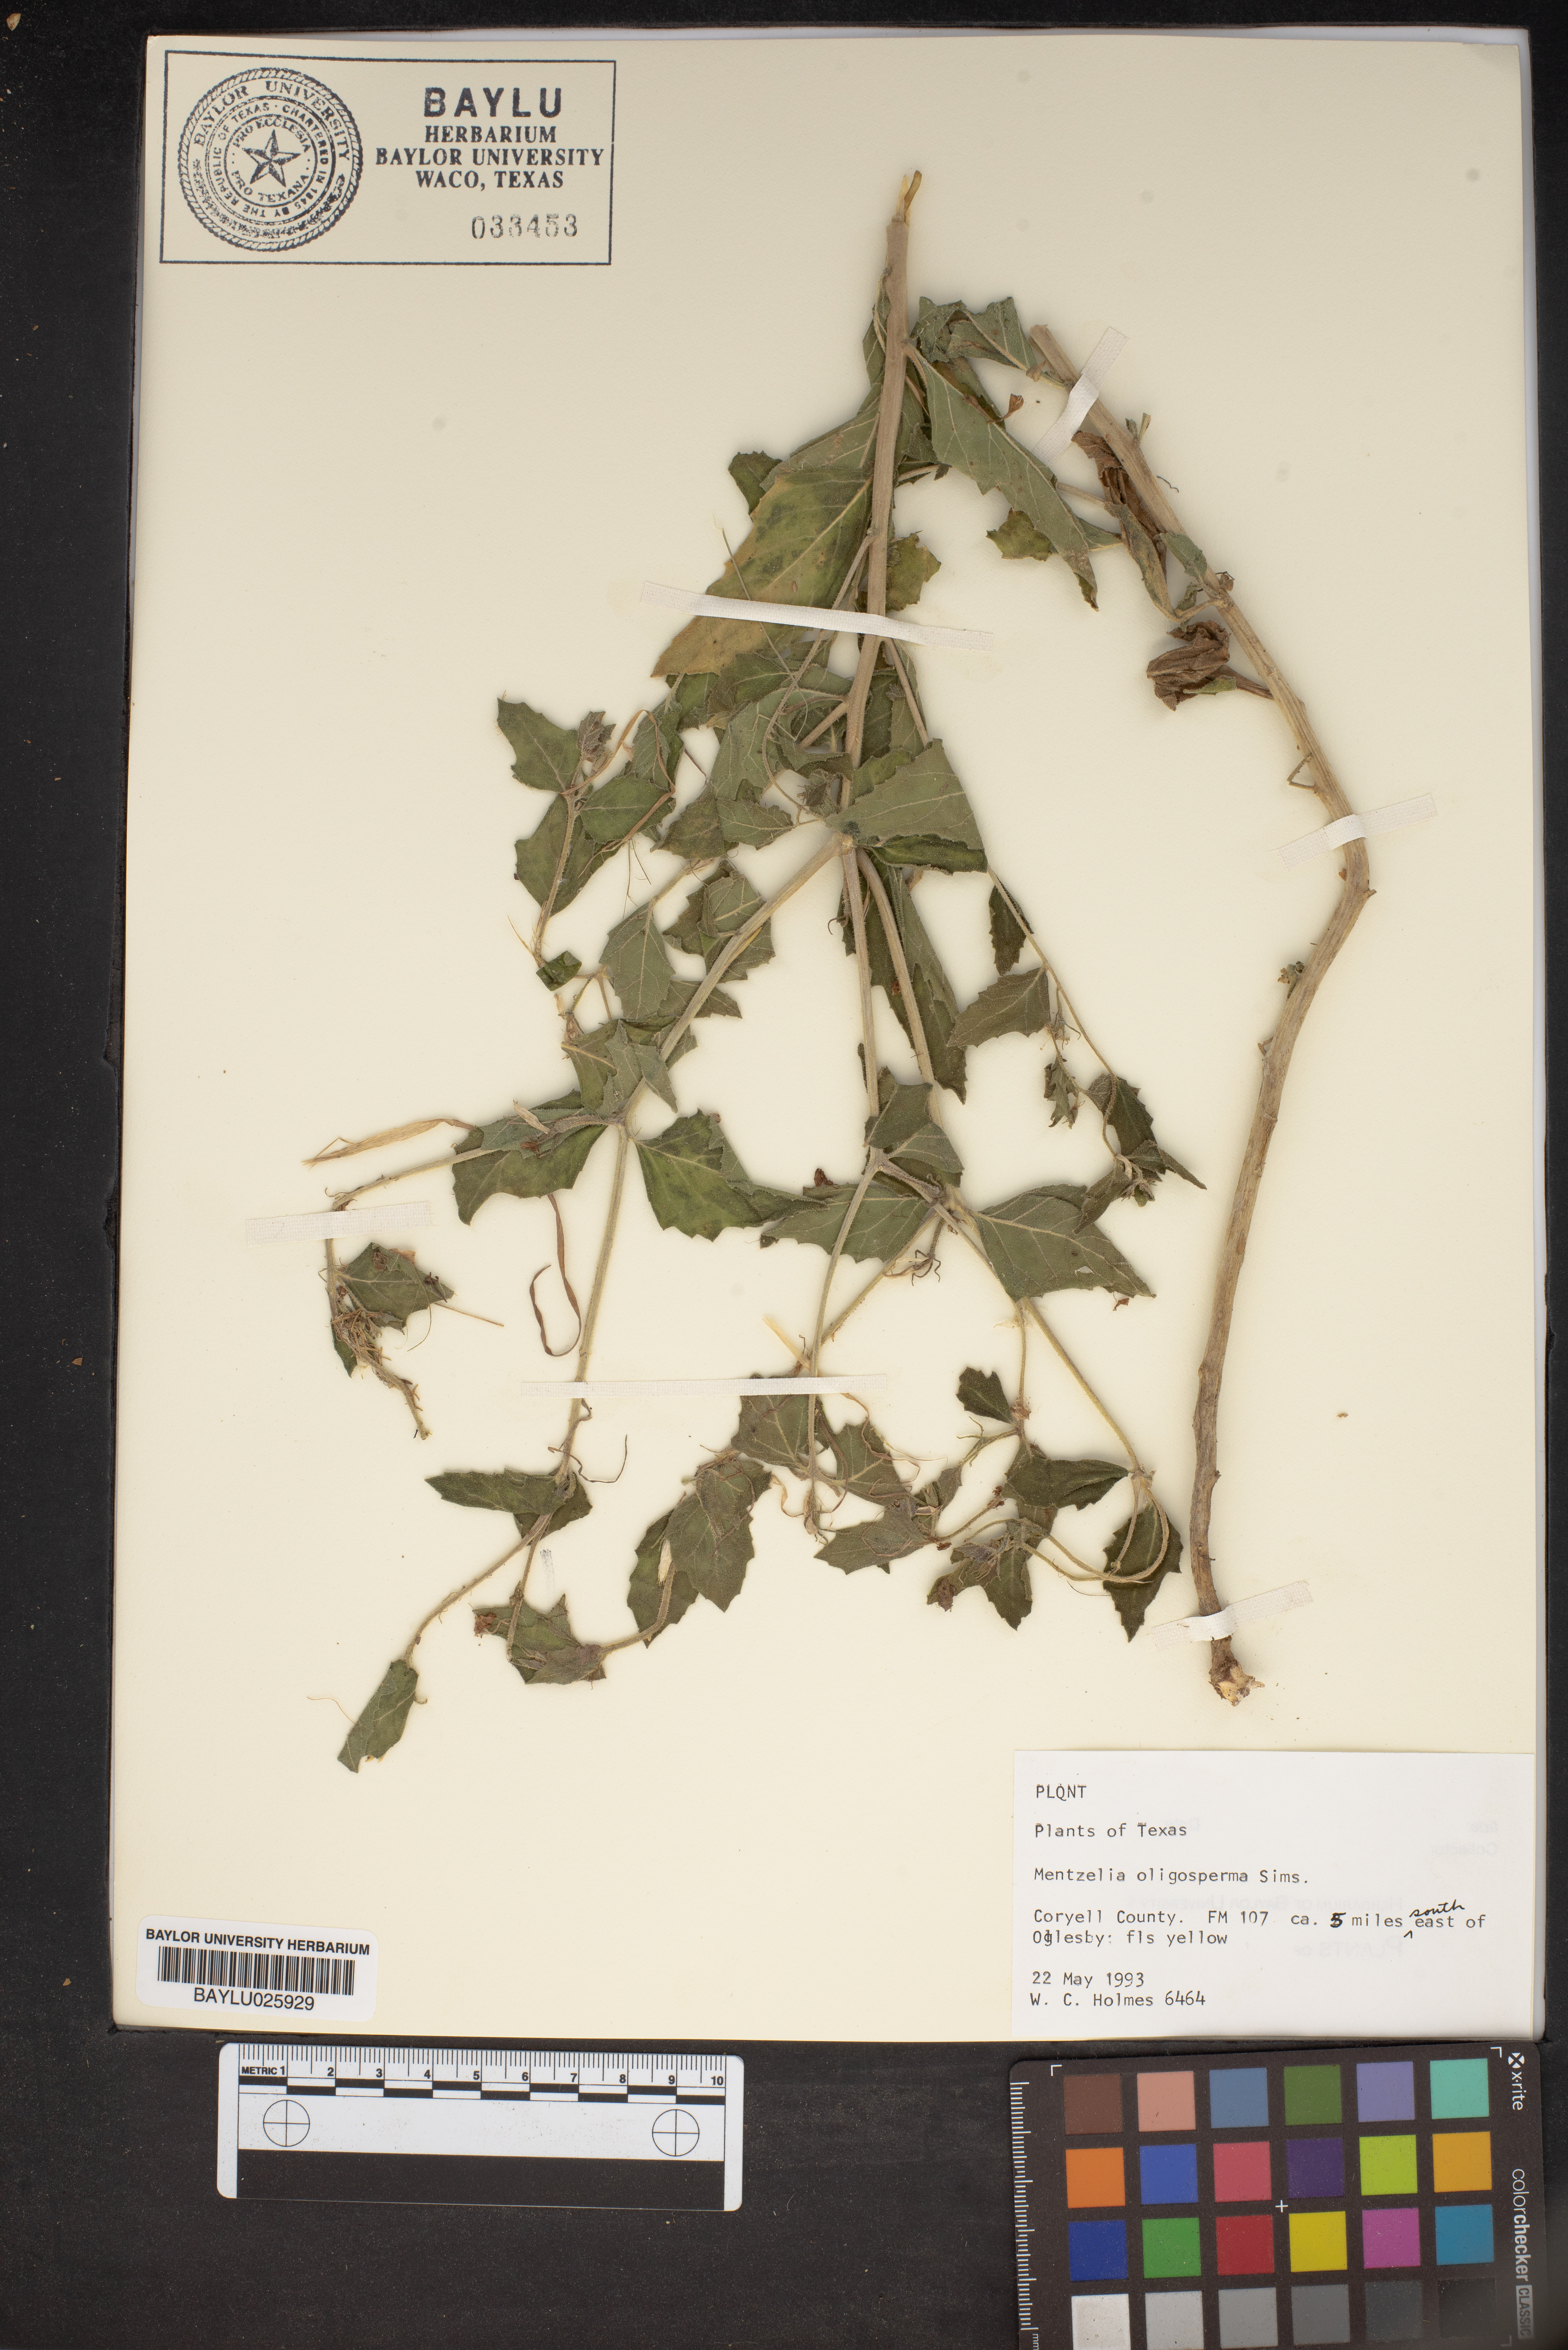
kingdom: Plantae
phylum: Tracheophyta
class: Magnoliopsida
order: Cornales
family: Loasaceae
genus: Mentzelia
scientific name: Mentzelia oligosperma
